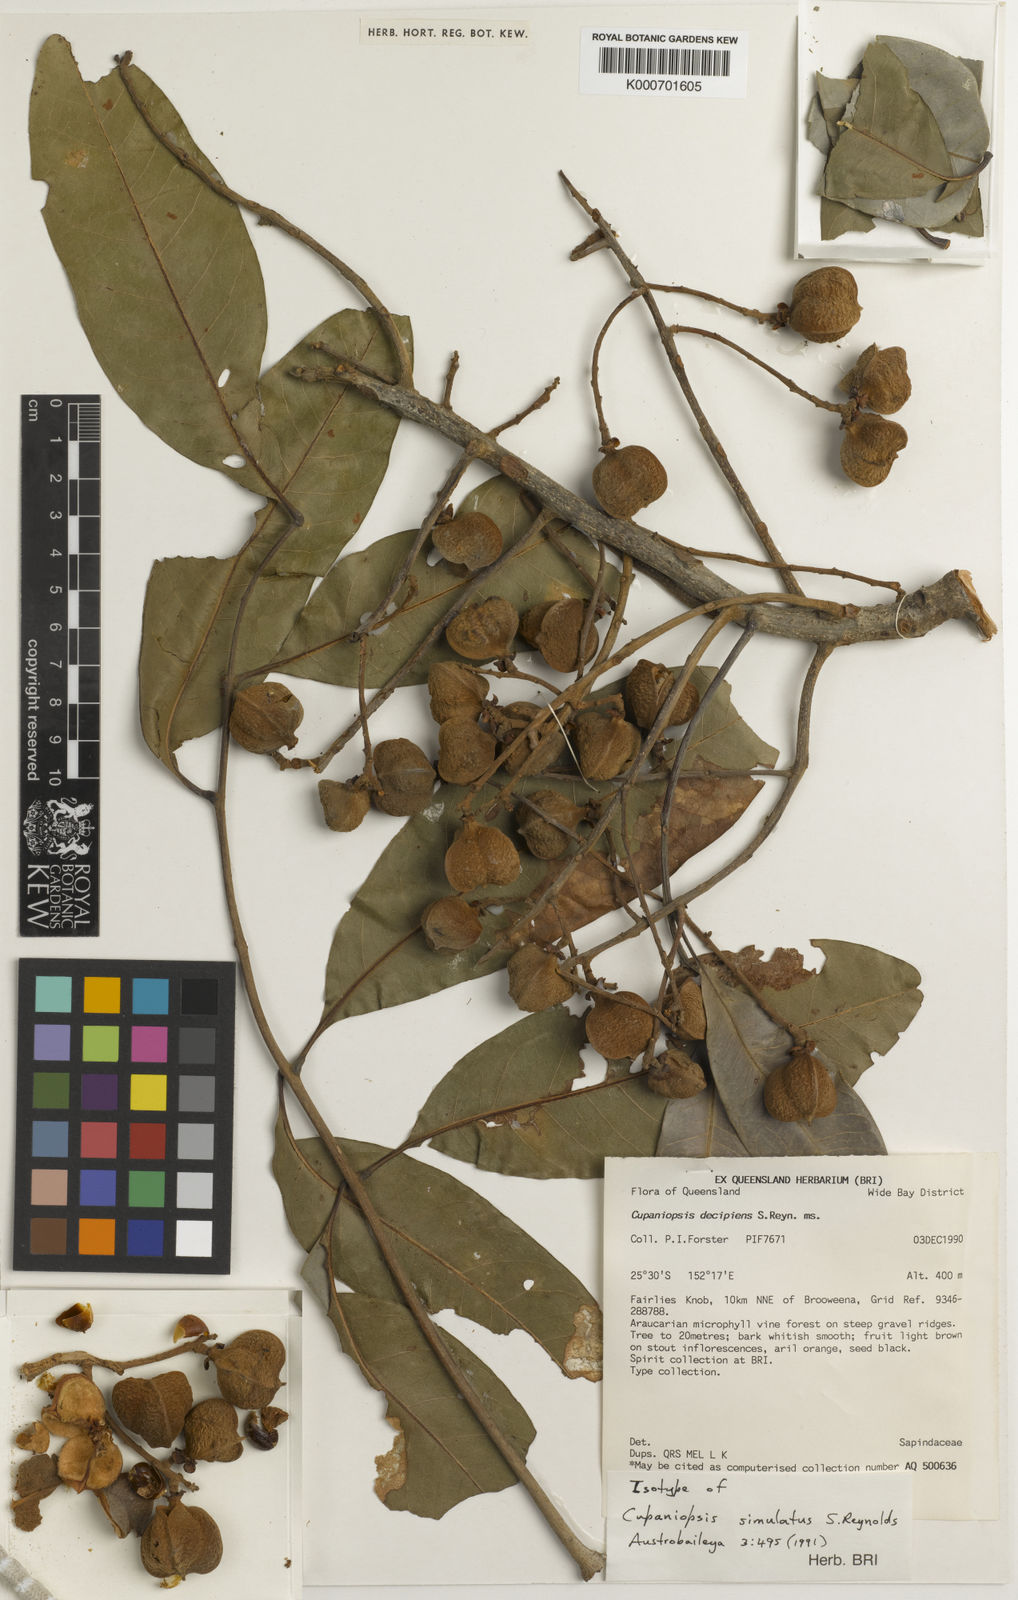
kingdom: Plantae
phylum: Tracheophyta
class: Magnoliopsida
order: Sapindales
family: Sapindaceae
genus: Cupaniopsis
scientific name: Cupaniopsis simulata
